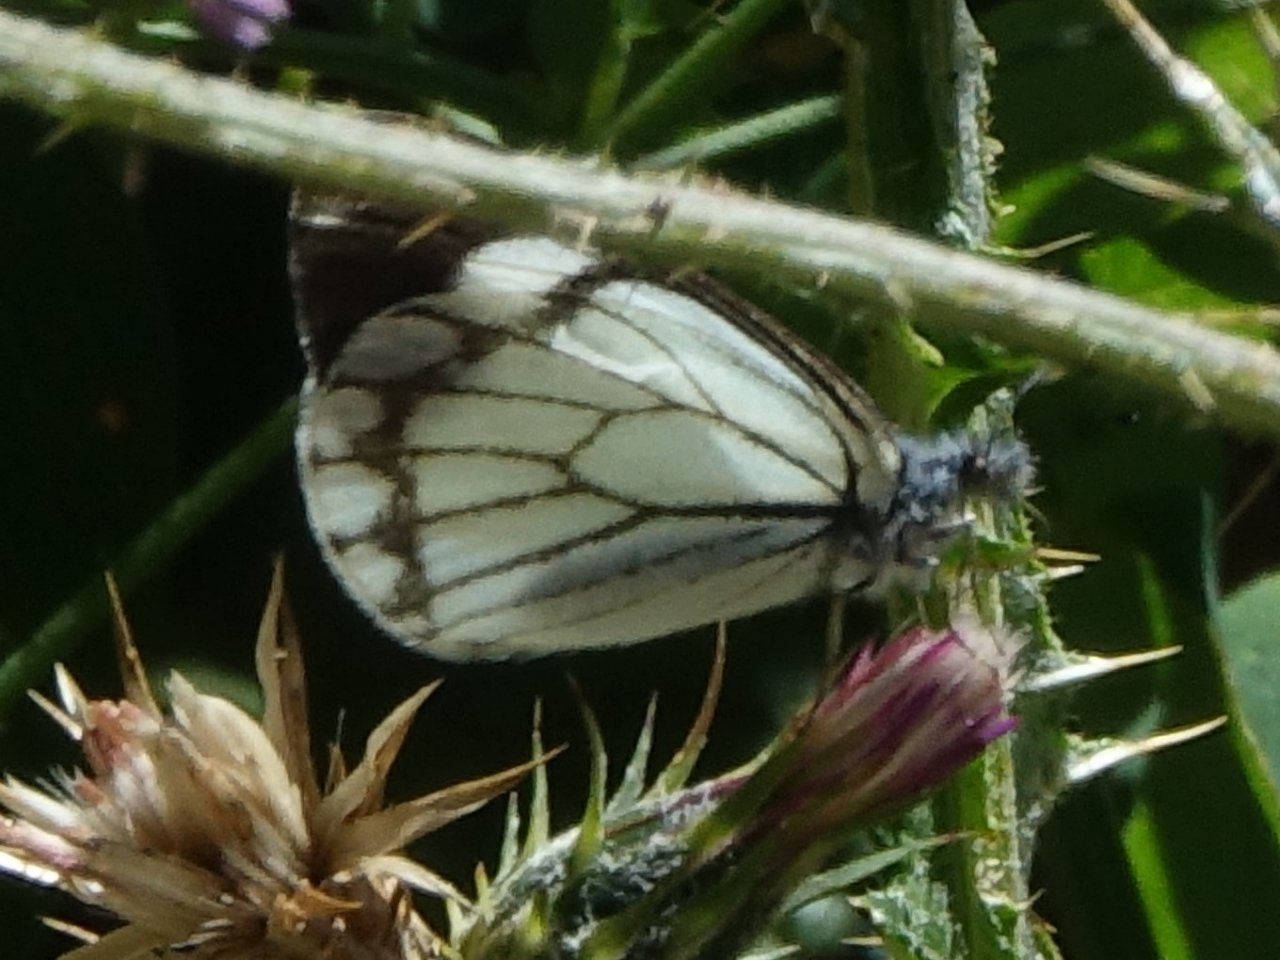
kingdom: Animalia
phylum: Arthropoda
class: Insecta
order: Lepidoptera
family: Pieridae
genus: Neophasia
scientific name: Neophasia menapia
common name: Pine White
